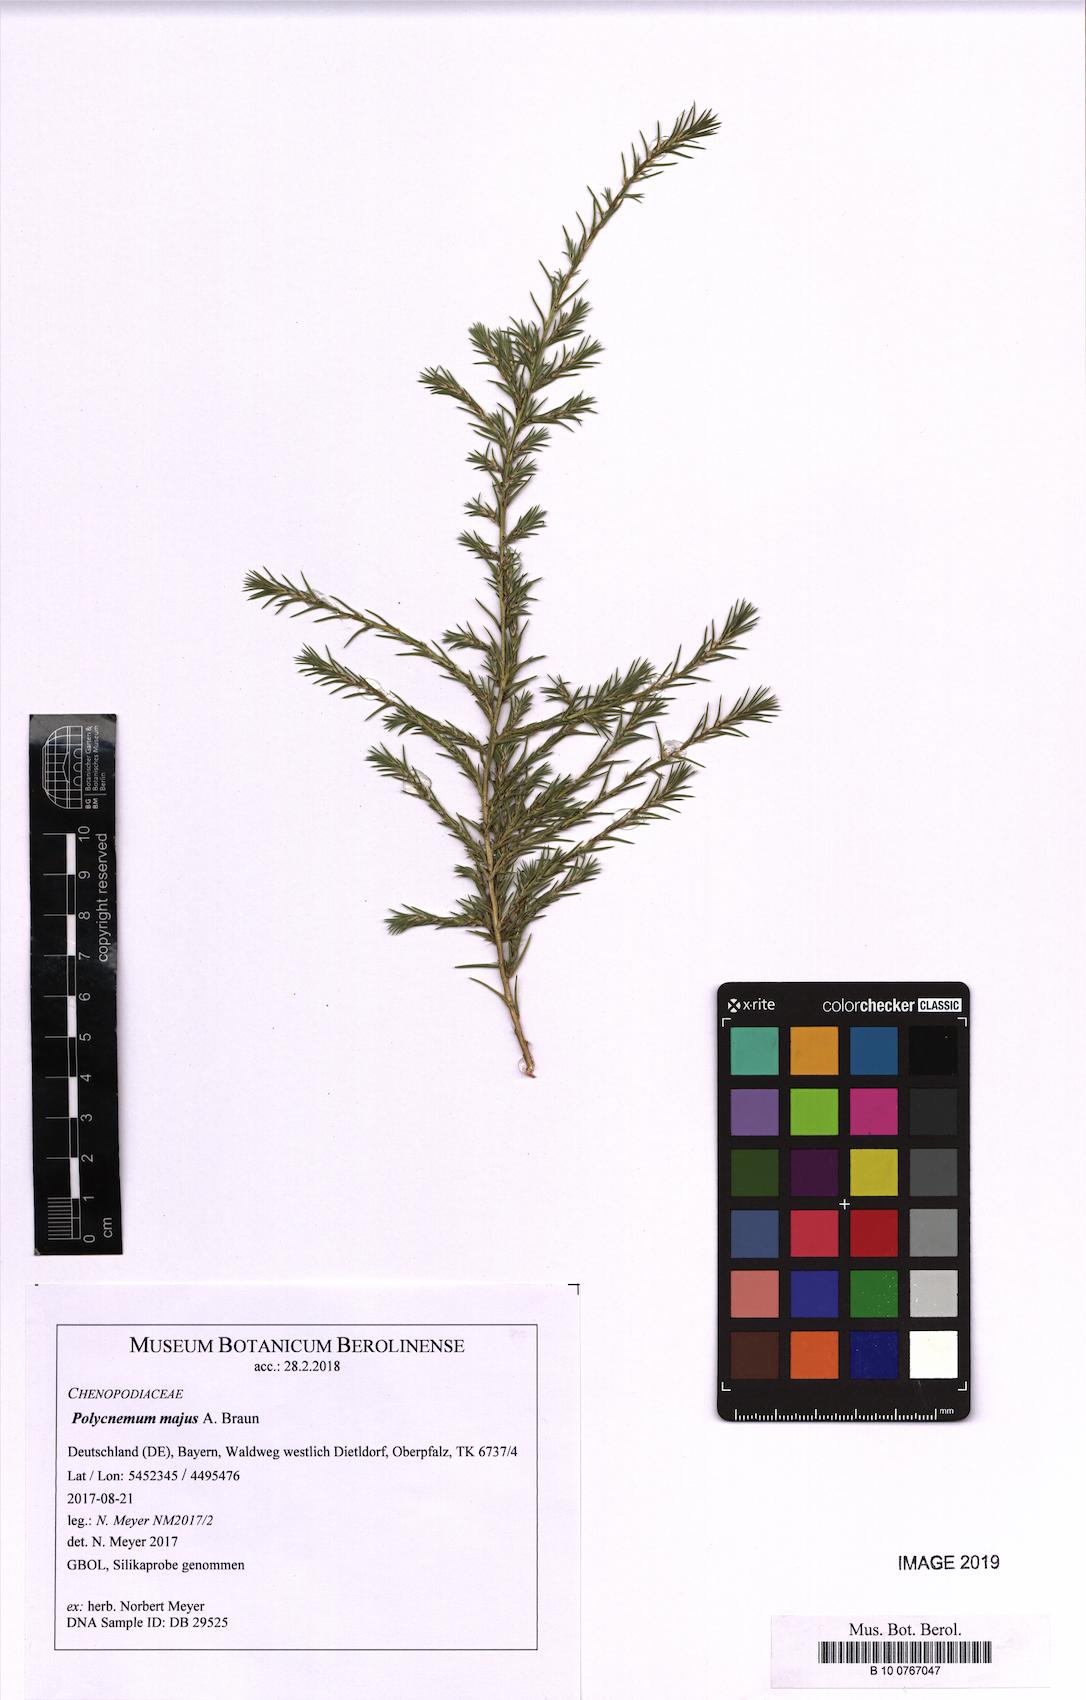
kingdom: Plantae
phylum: Tracheophyta
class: Magnoliopsida
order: Caryophyllales
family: Amaranthaceae
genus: Polycnemum
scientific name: Polycnemum majus
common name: Giant needleleaf
